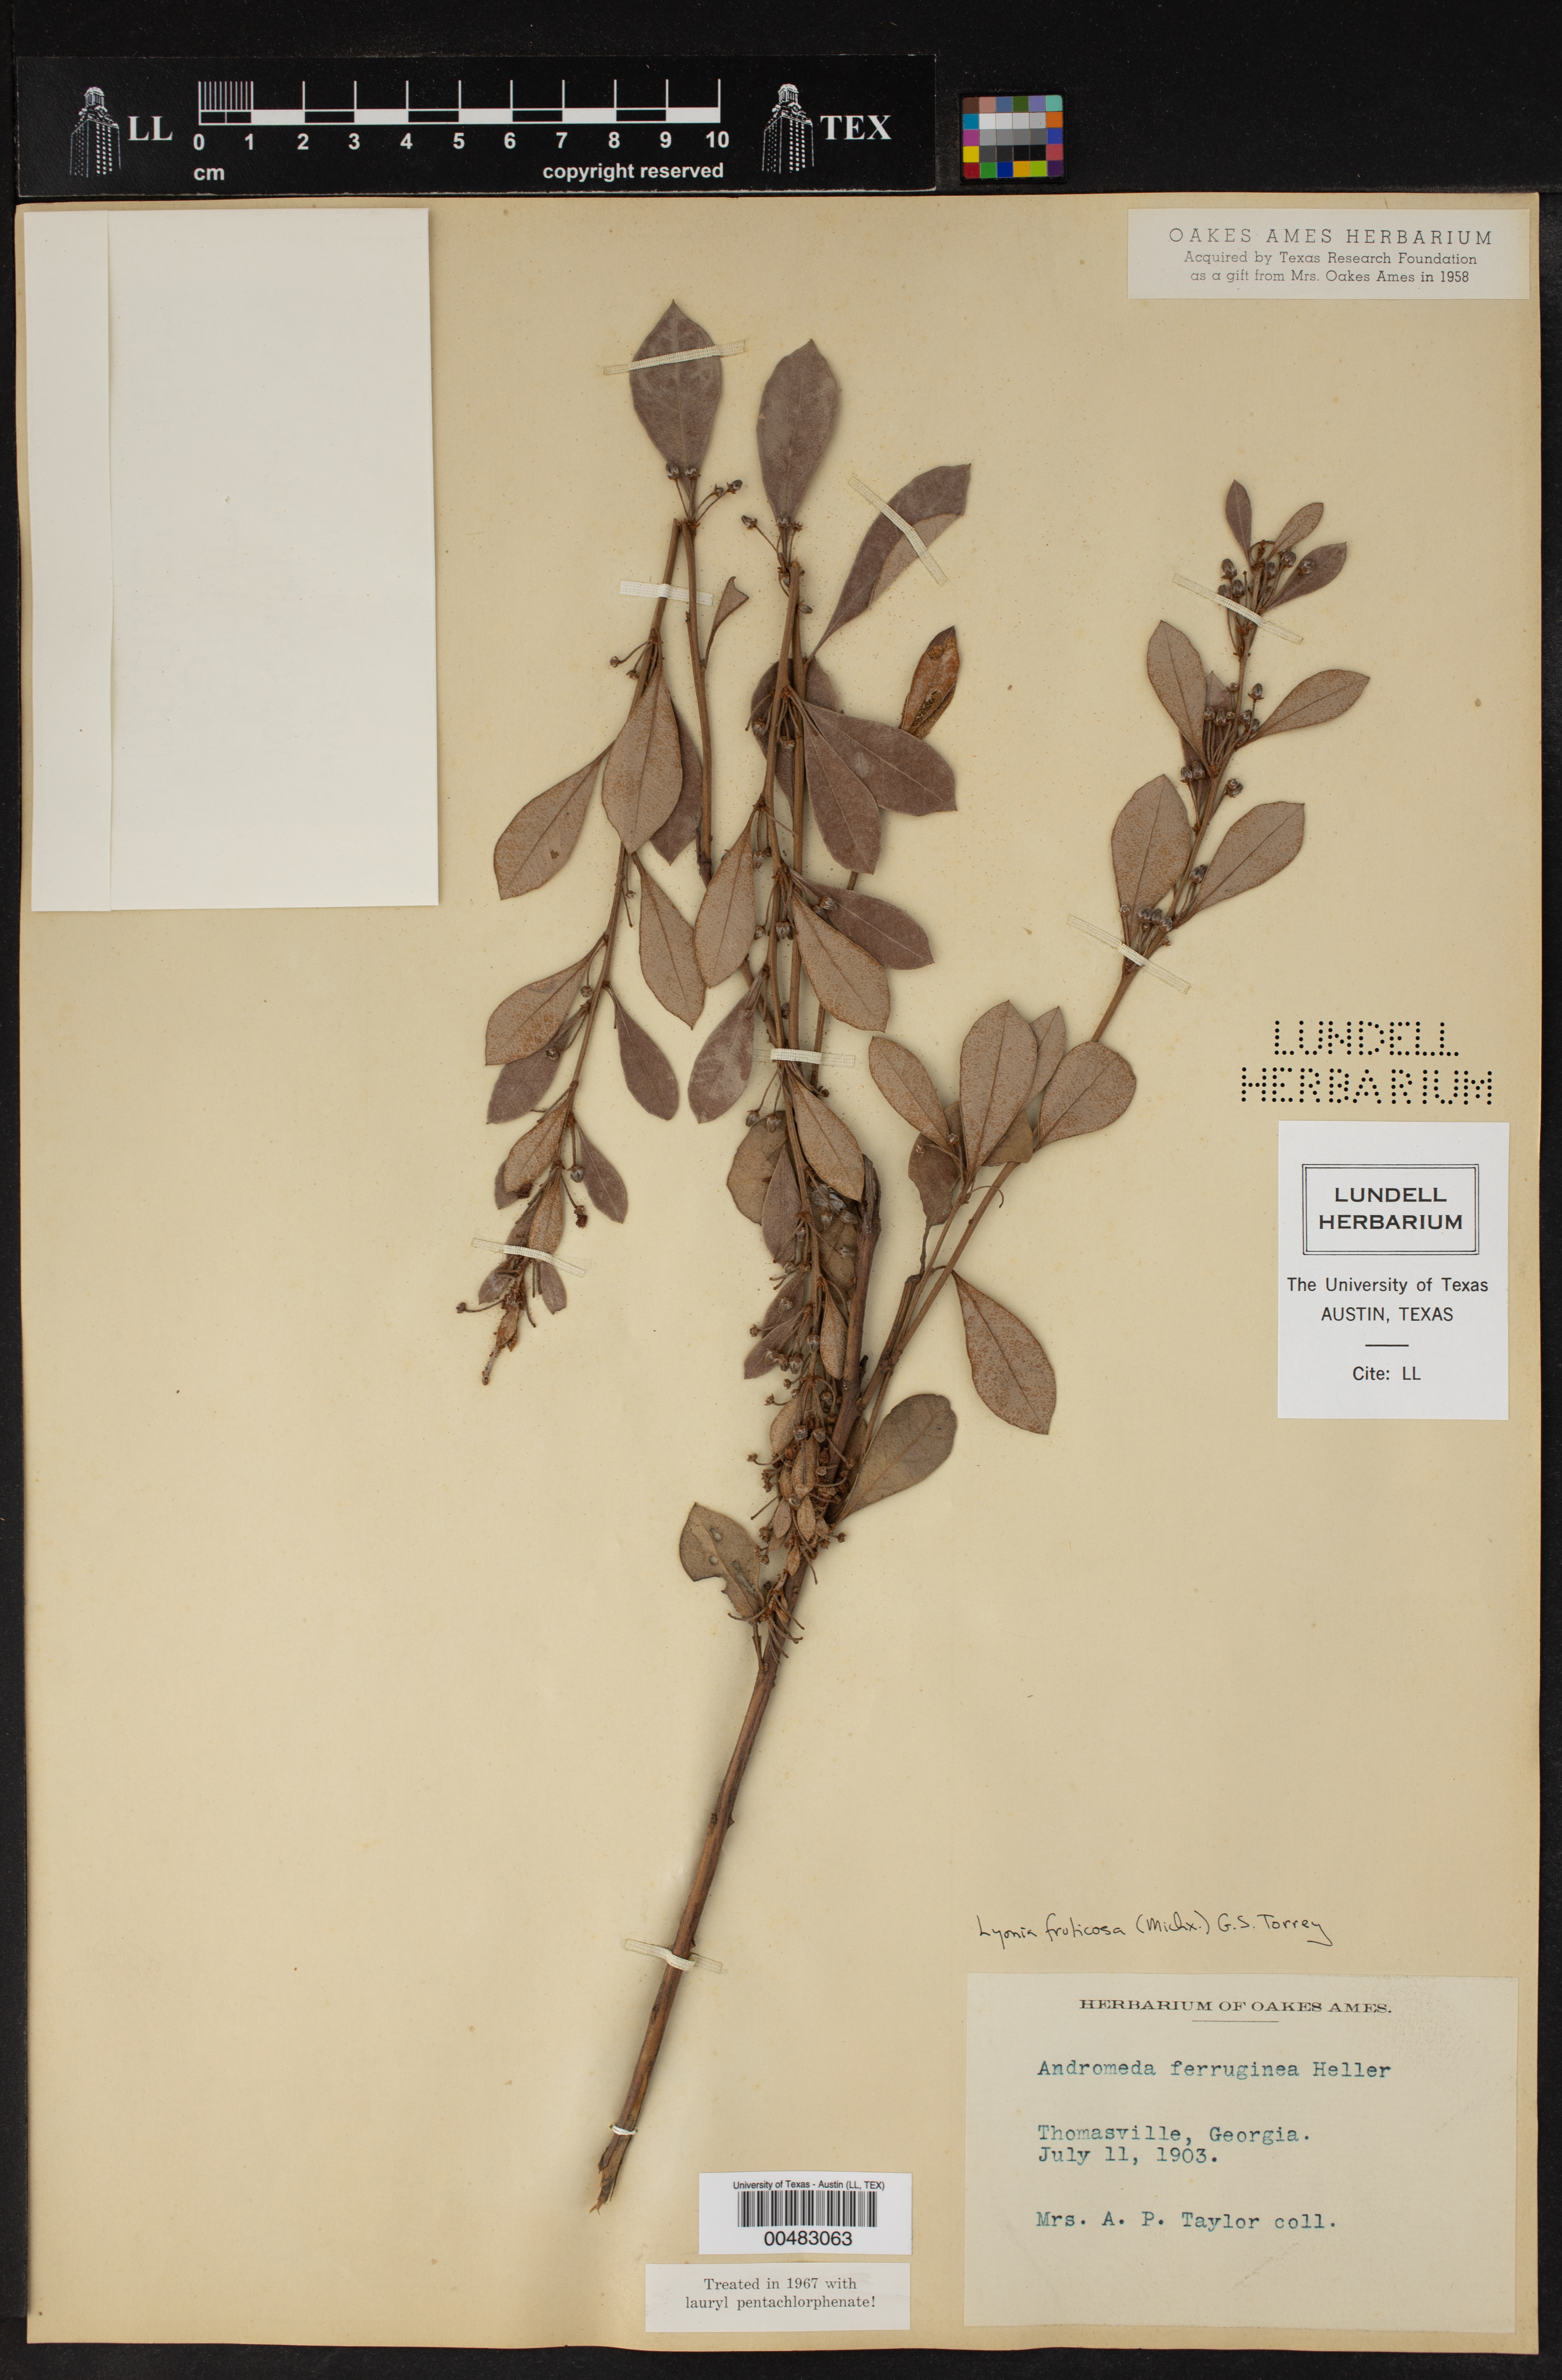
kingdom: Plantae
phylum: Tracheophyta
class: Magnoliopsida
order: Ericales
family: Ericaceae
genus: Lyonia
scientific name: Lyonia fruticosa
